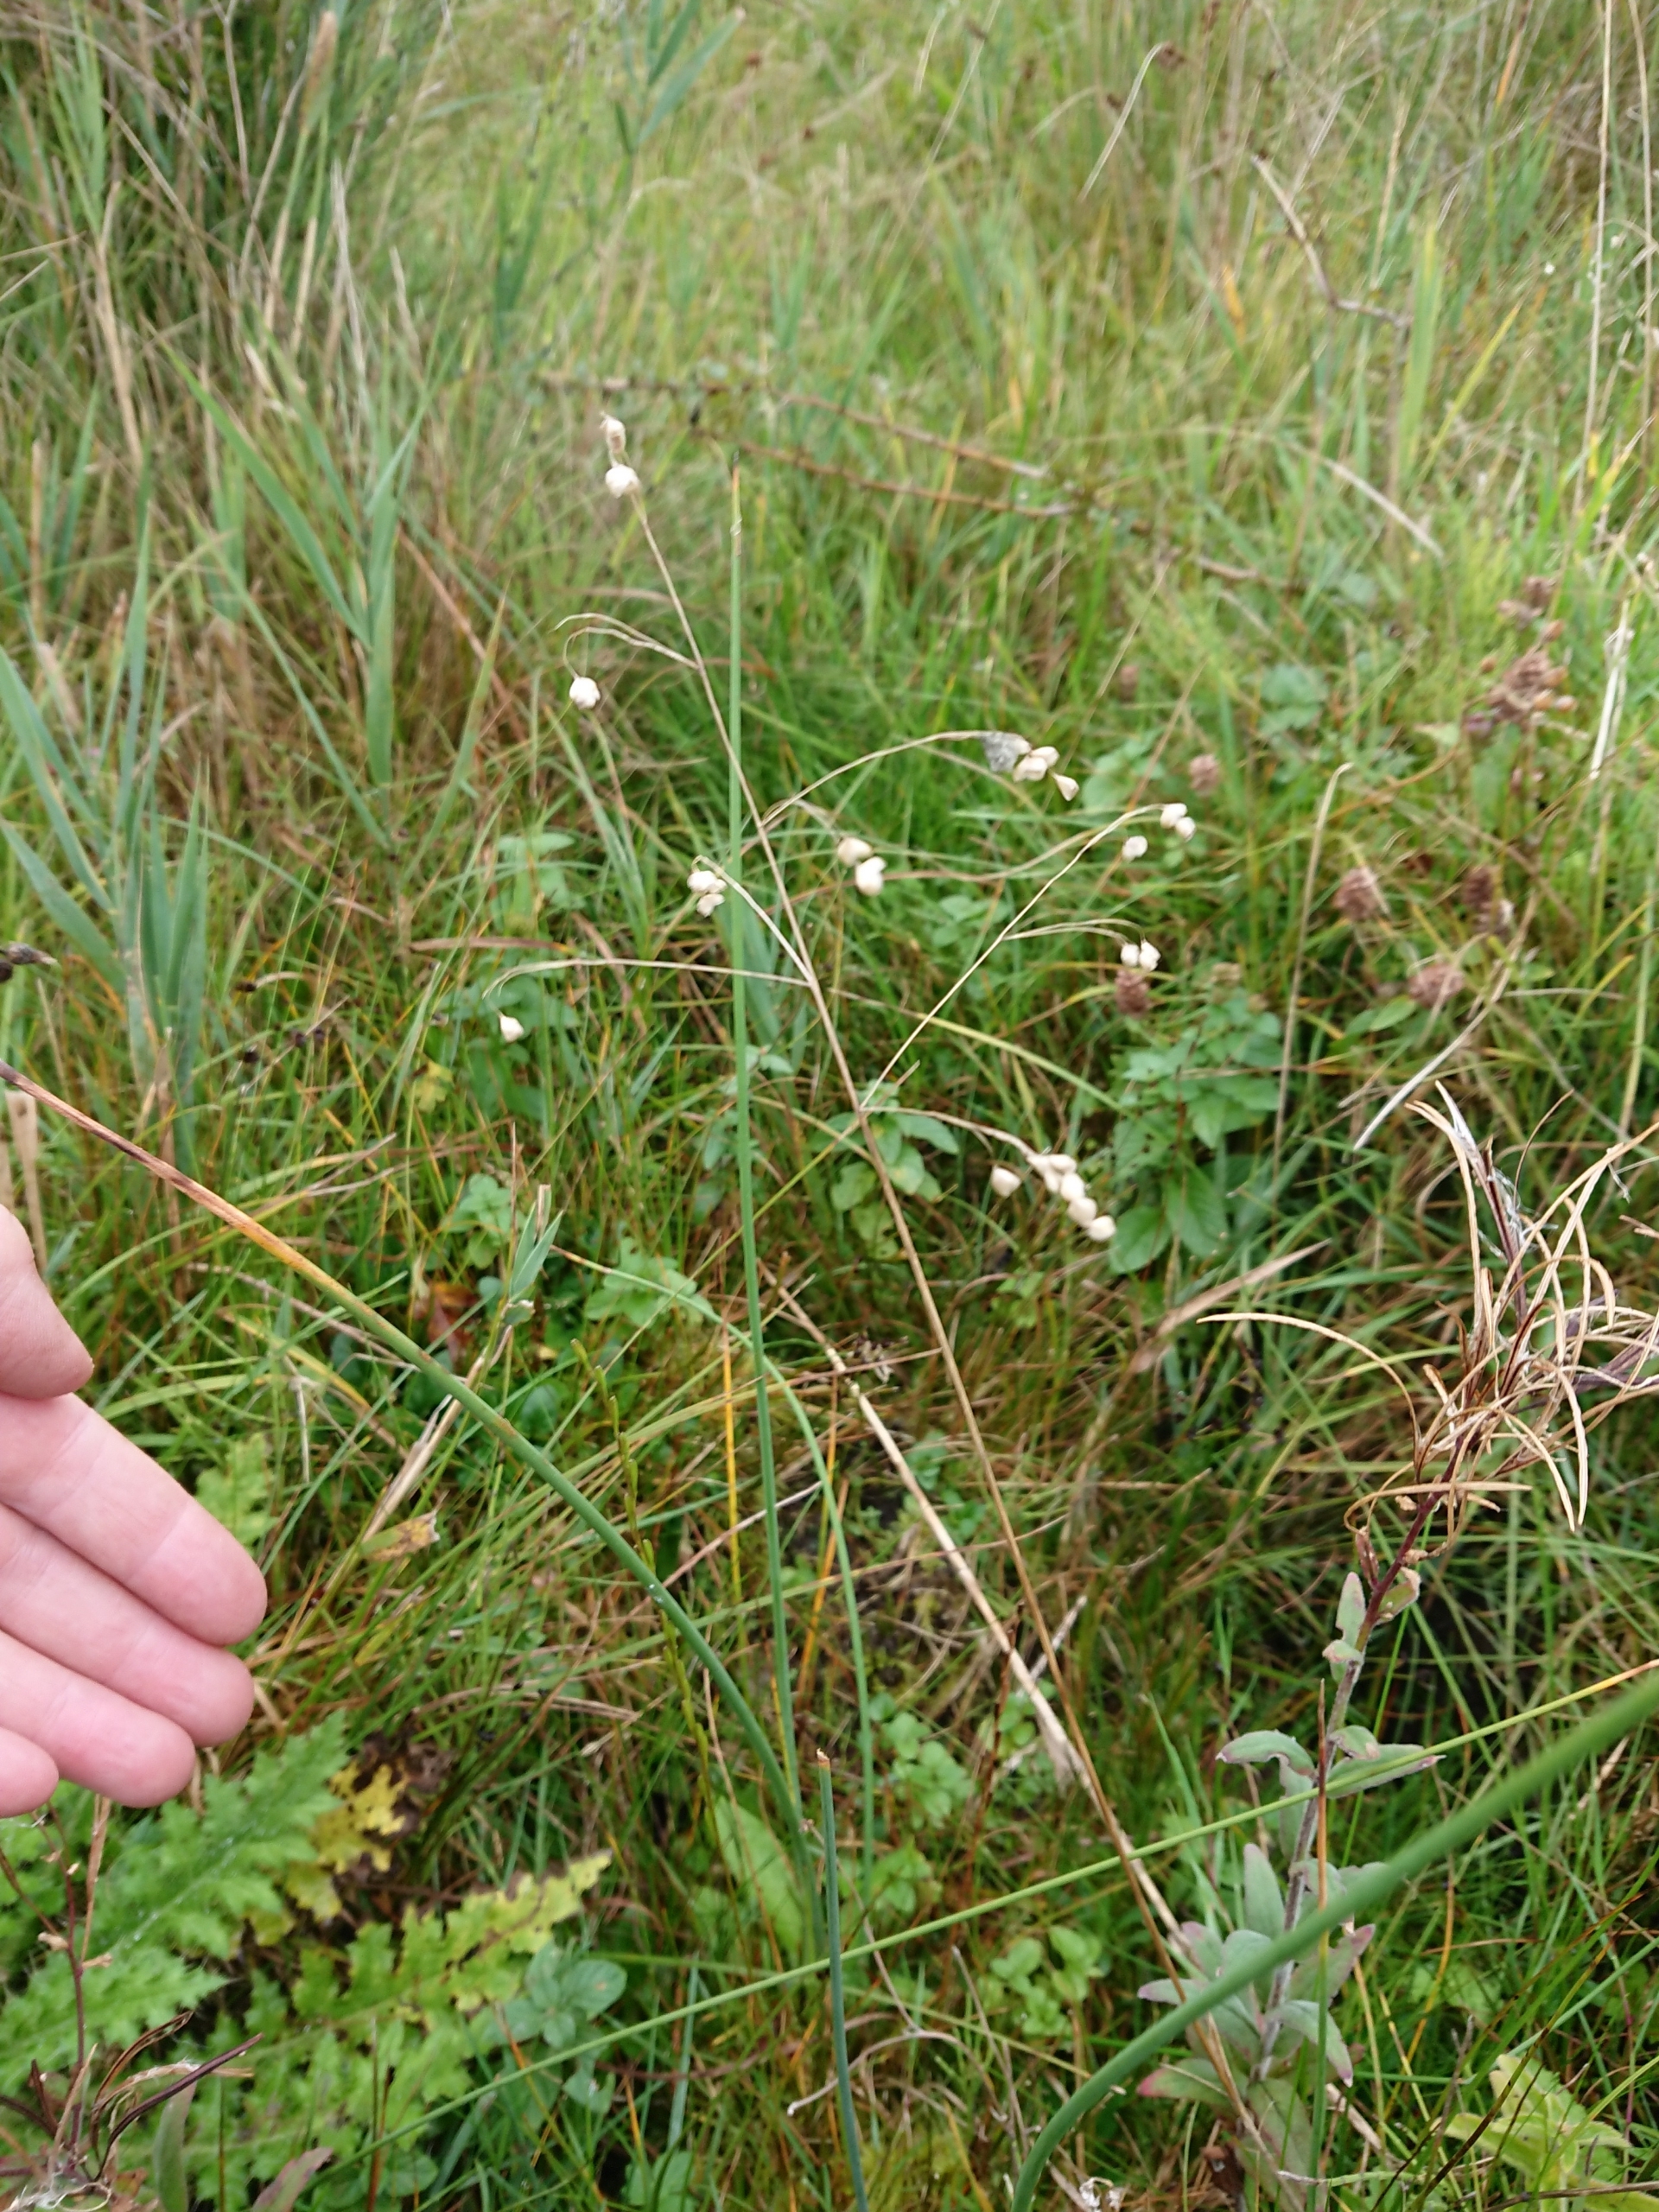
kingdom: Plantae
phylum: Tracheophyta
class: Liliopsida
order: Poales
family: Poaceae
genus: Briza
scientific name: Briza media
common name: Hjertegræs
